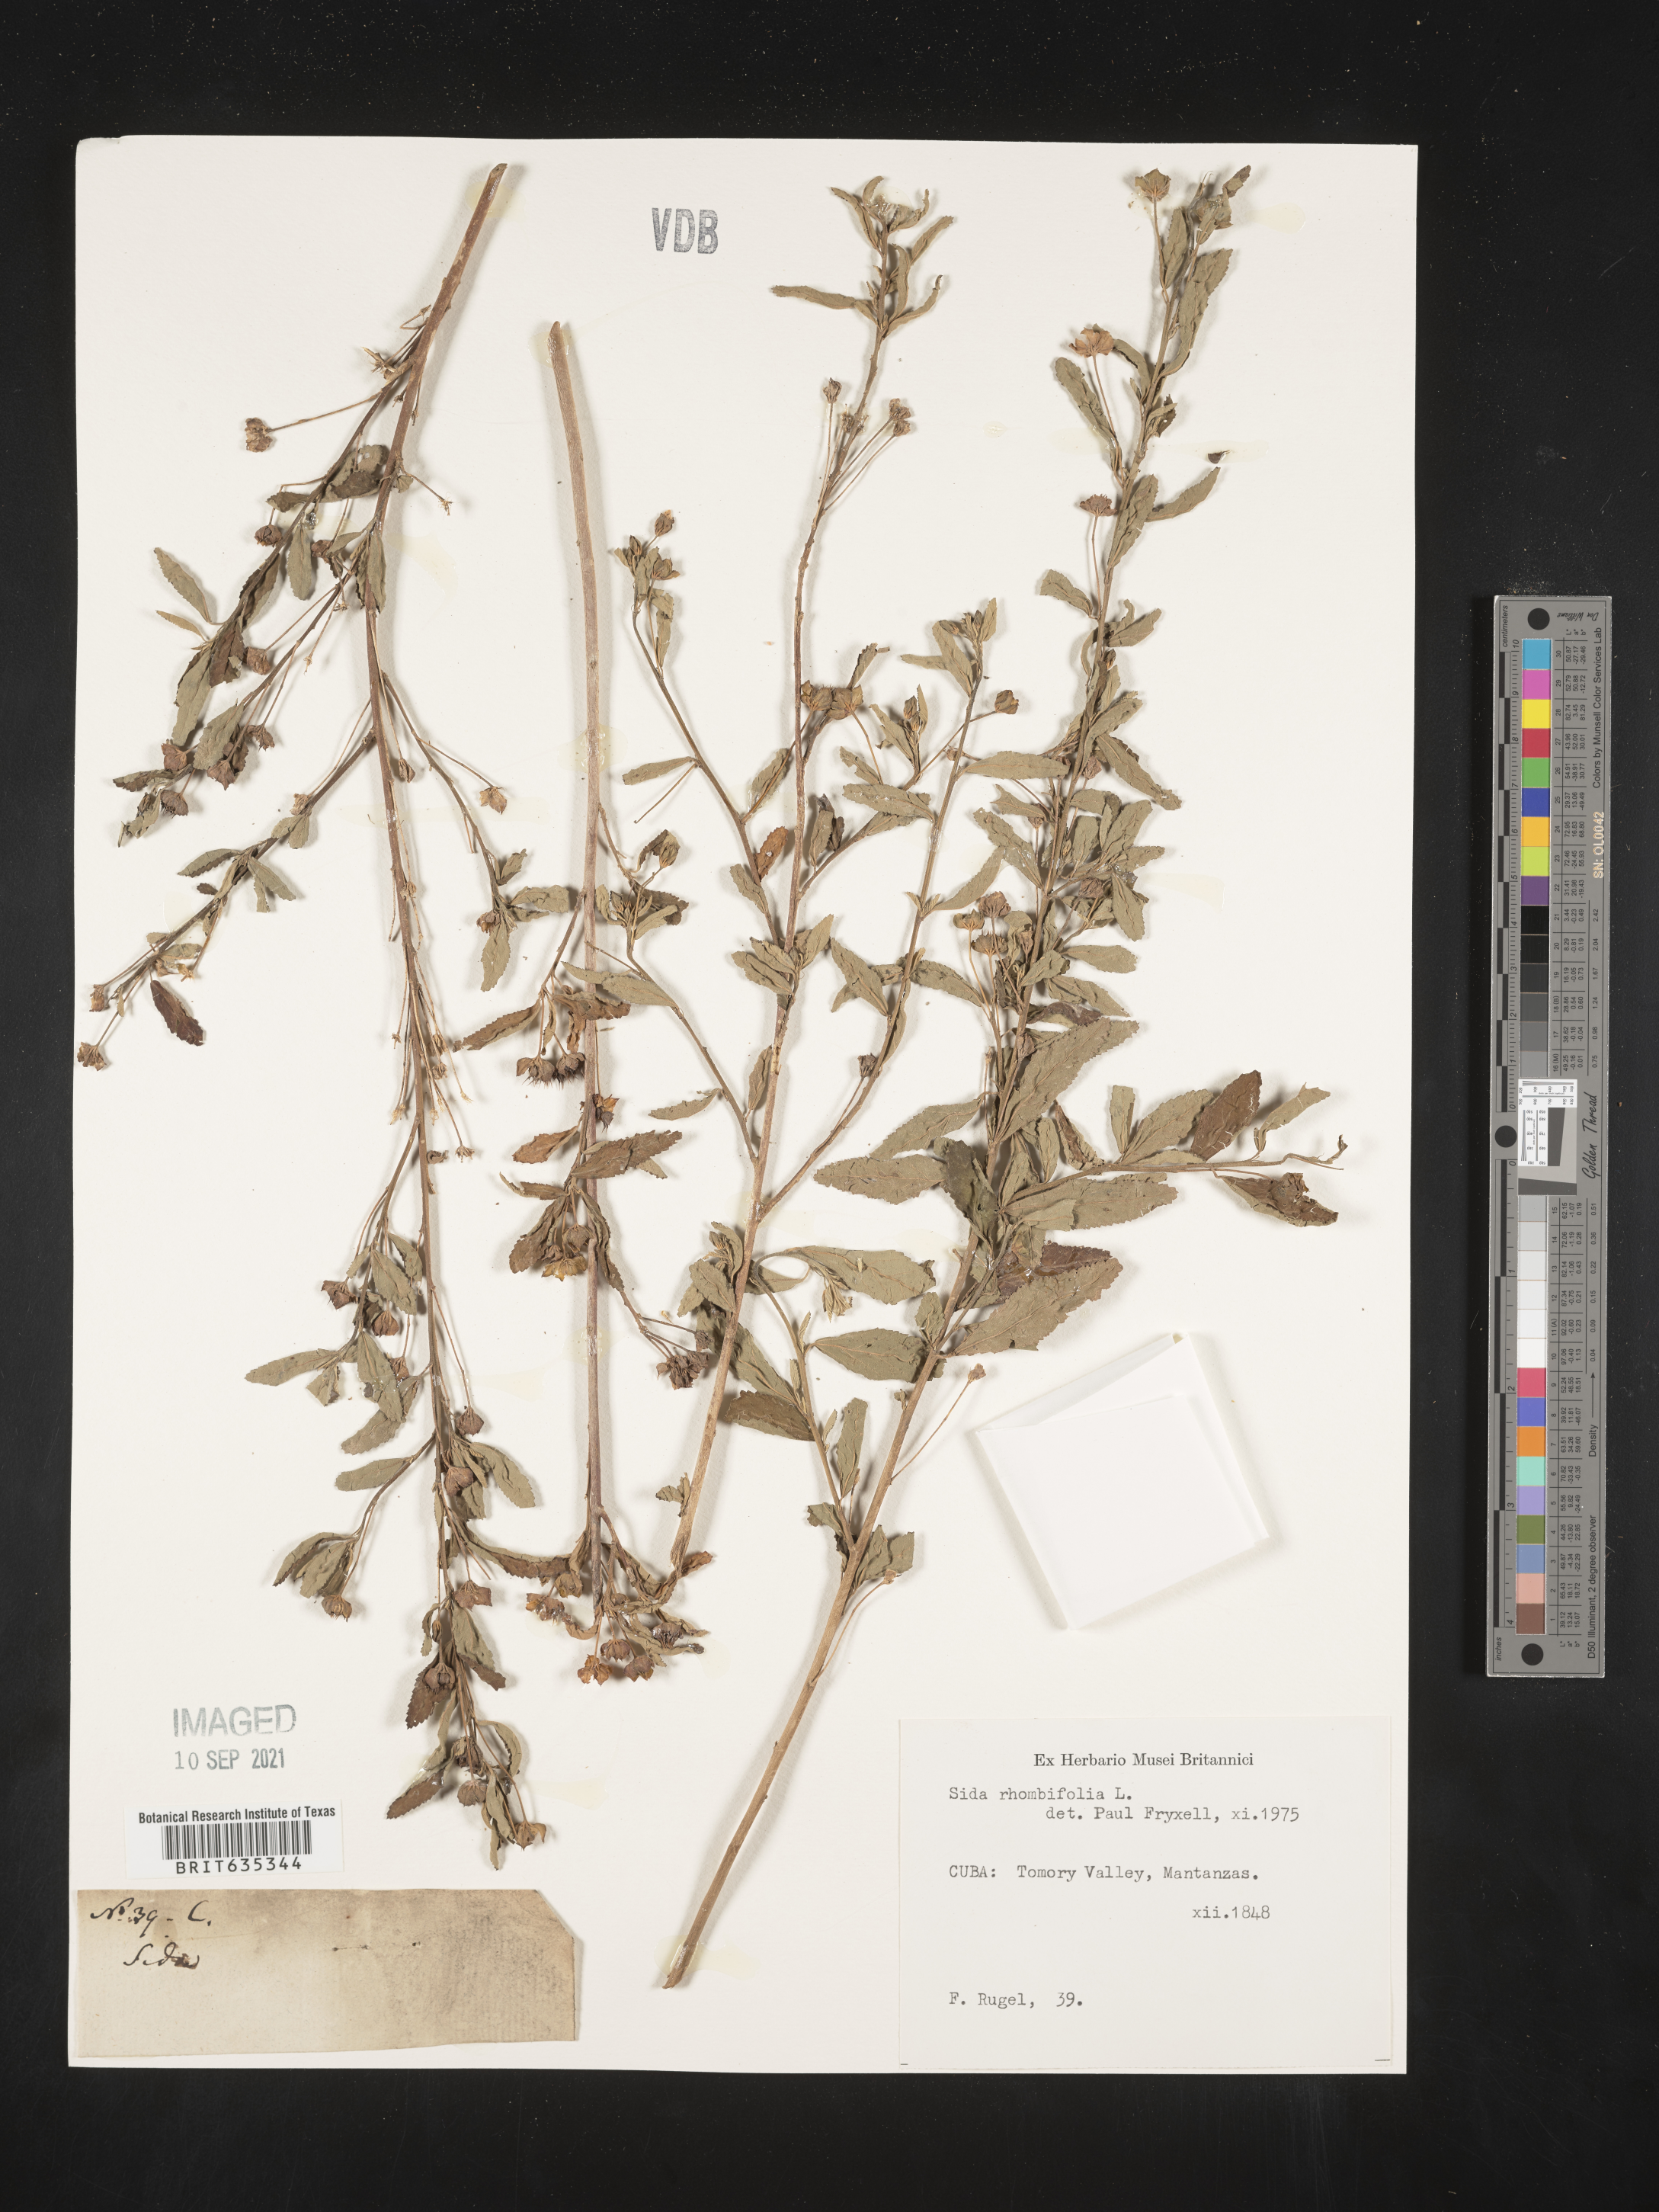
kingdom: Plantae
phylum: Tracheophyta
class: Magnoliopsida
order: Malvales
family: Malvaceae
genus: Sida
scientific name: Sida
